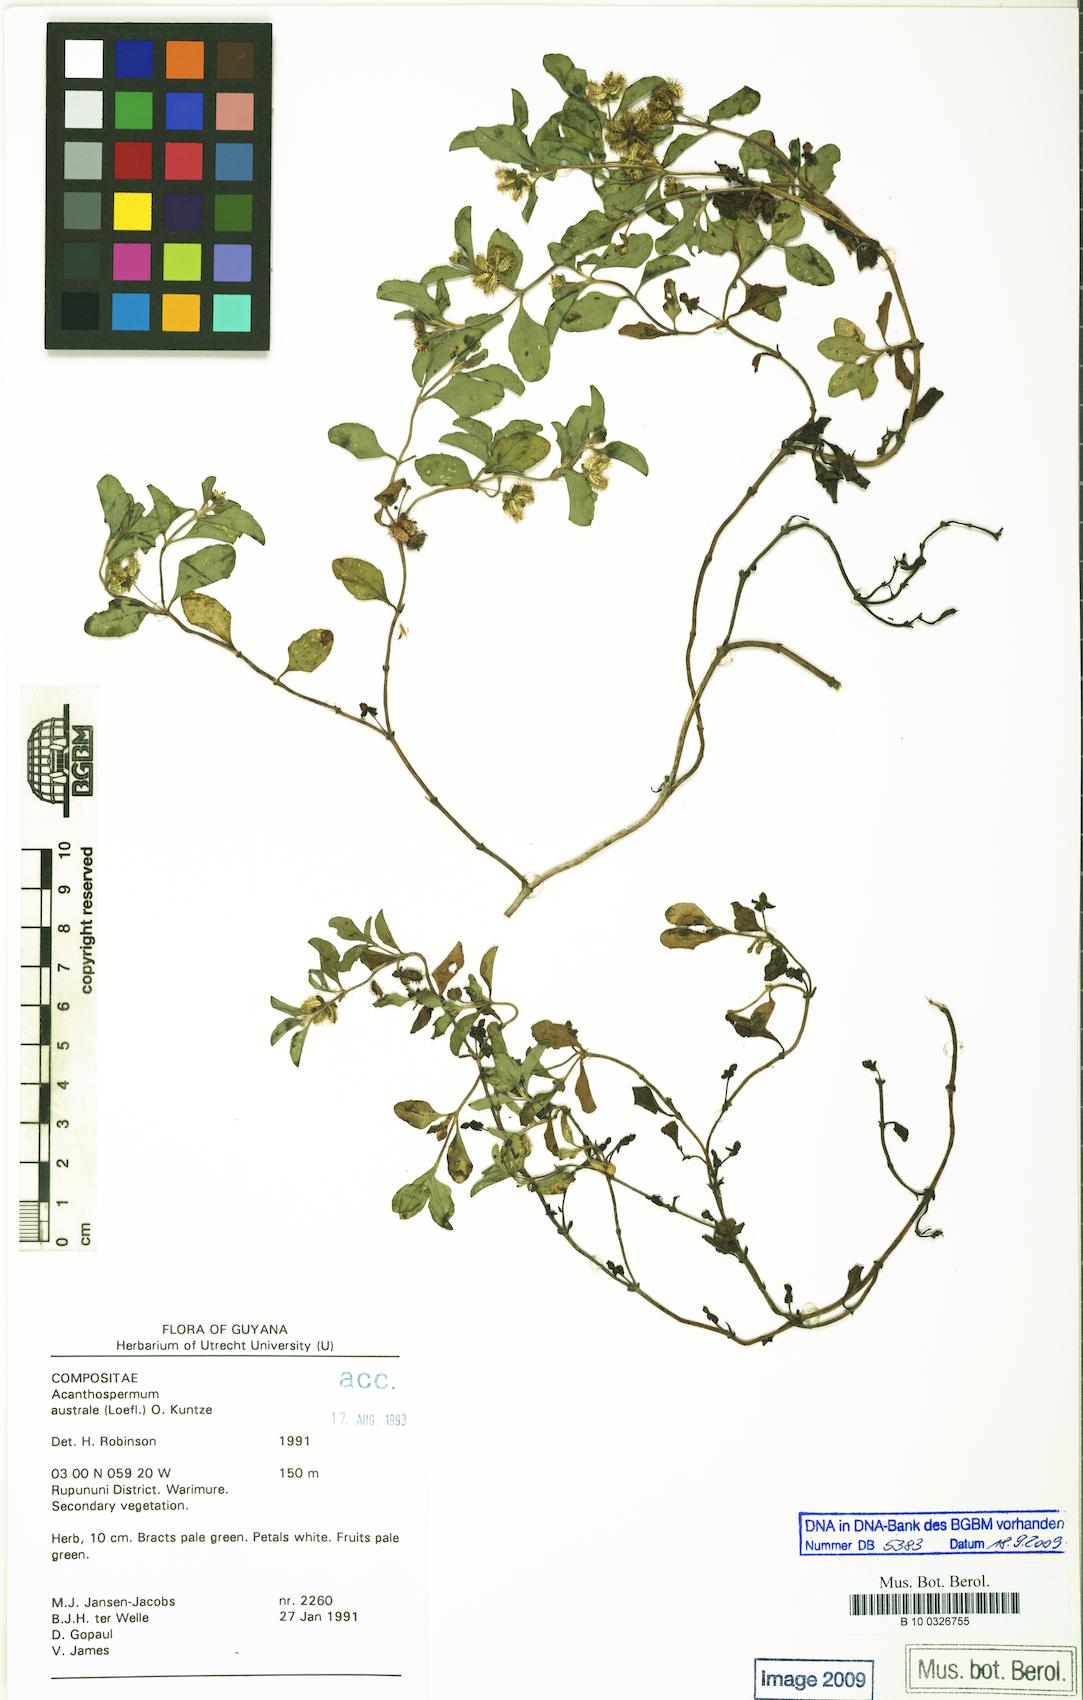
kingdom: Plantae
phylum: Tracheophyta
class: Magnoliopsida
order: Asterales
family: Asteraceae
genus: Acanthospermum
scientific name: Acanthospermum australe
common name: Paraguayan starbur
